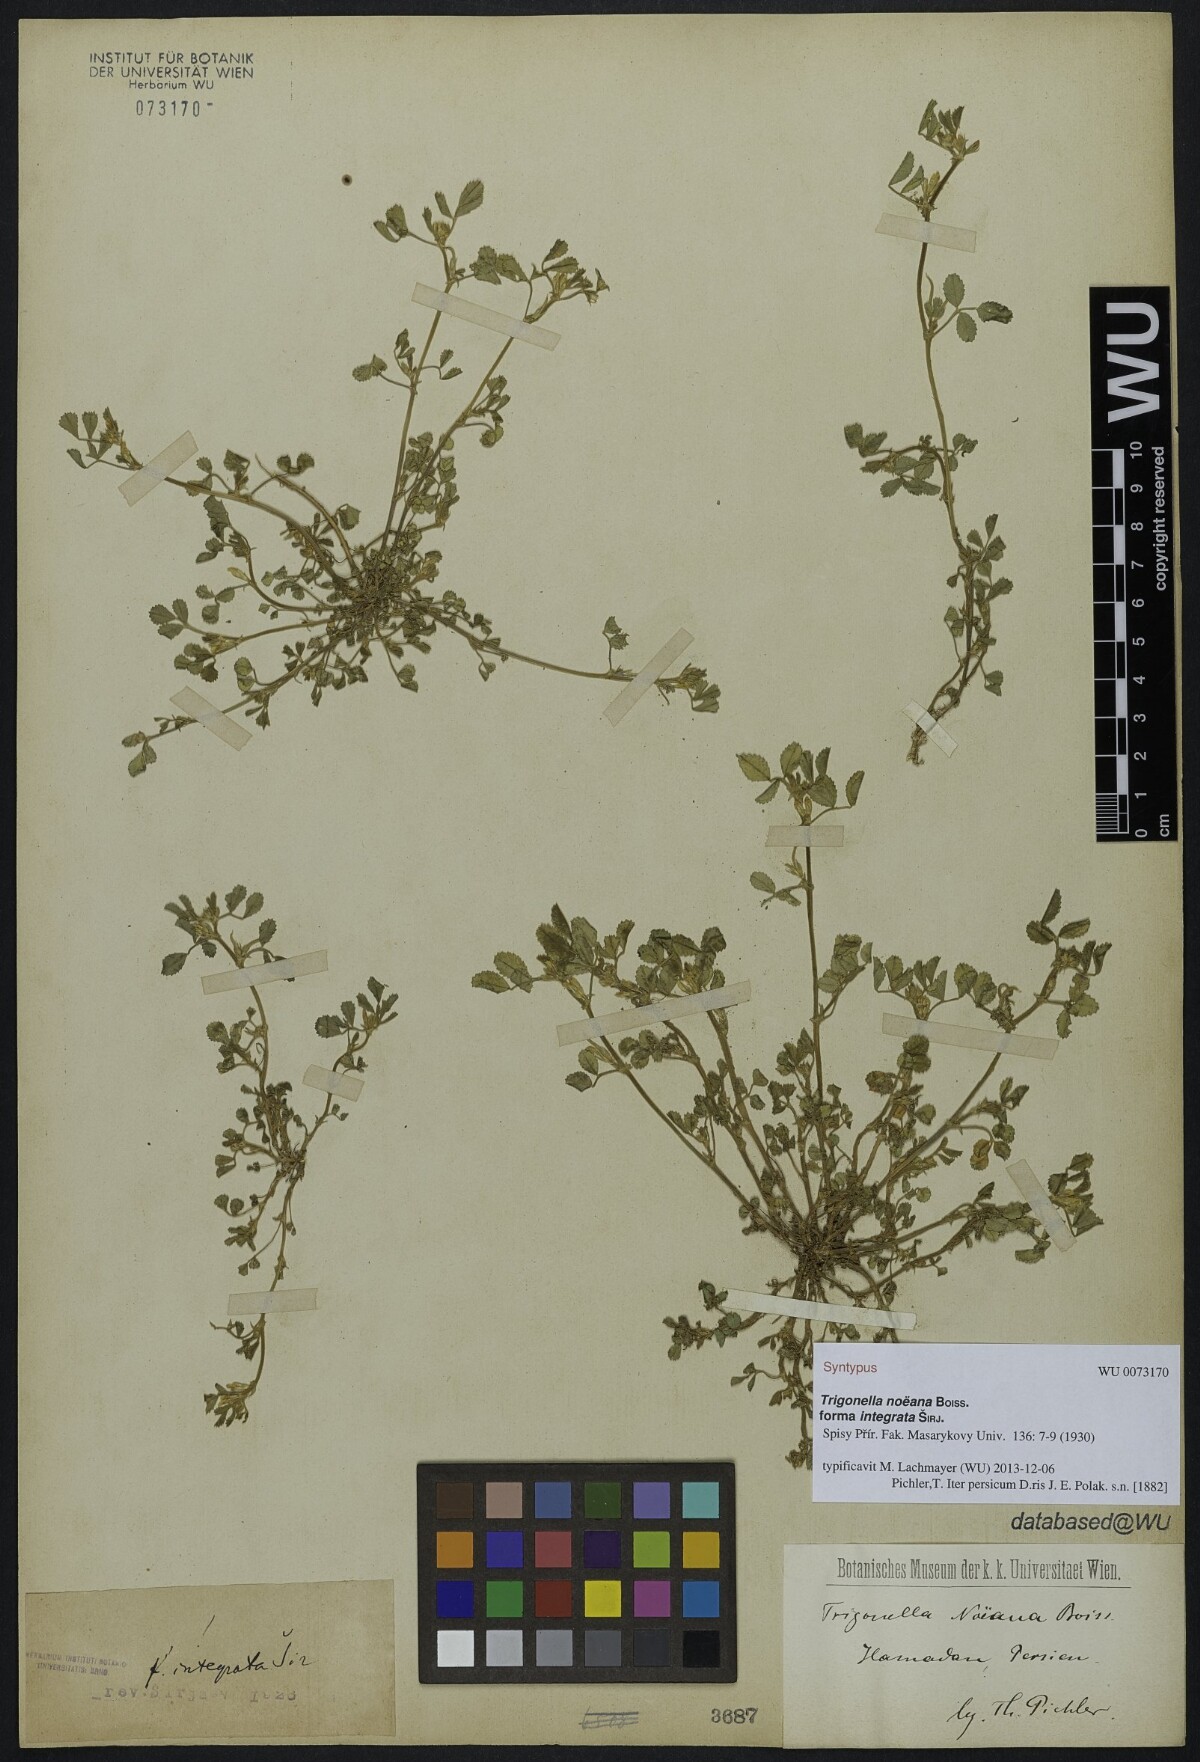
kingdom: Plantae
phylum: Tracheophyta
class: Magnoliopsida
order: Fabales
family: Fabaceae
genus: Medicago
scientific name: Medicago monantha
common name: Medick
